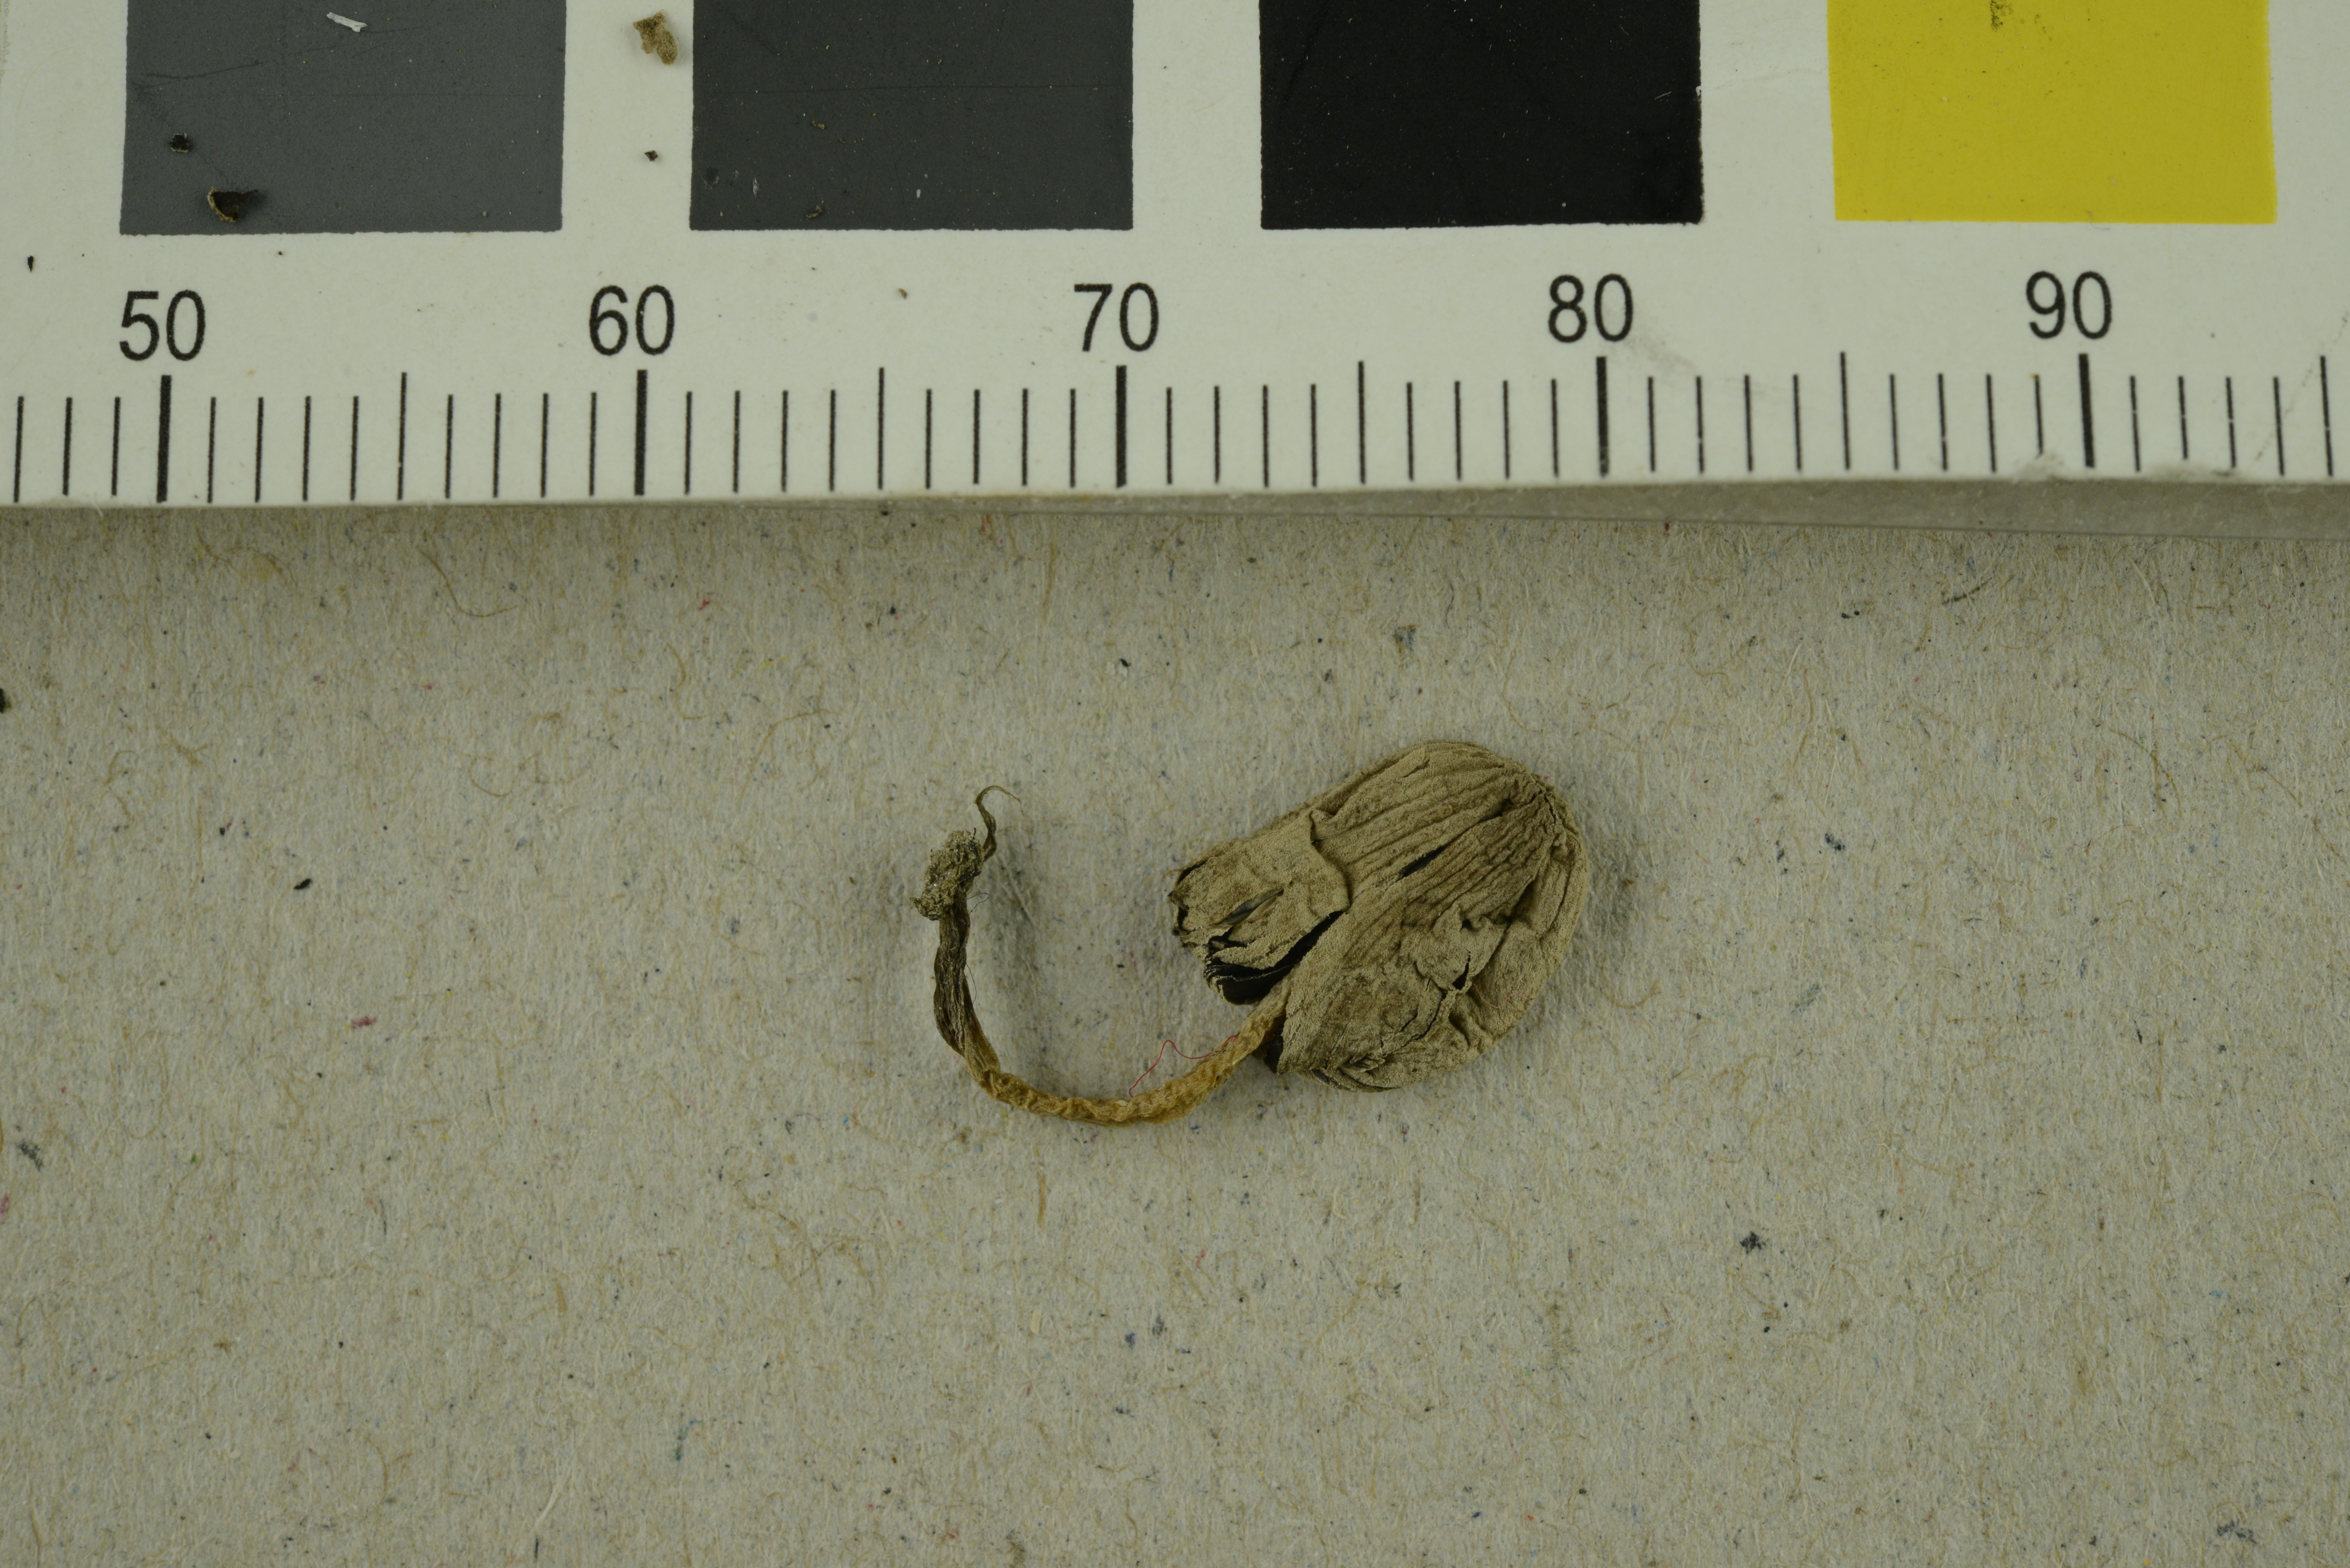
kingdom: Fungi
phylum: Basidiomycota
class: Agaricomycetes
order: Agaricales
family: Psathyrellaceae
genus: Coprinopsis
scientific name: Coprinopsis tuberosa
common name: Tuberous inkcap
